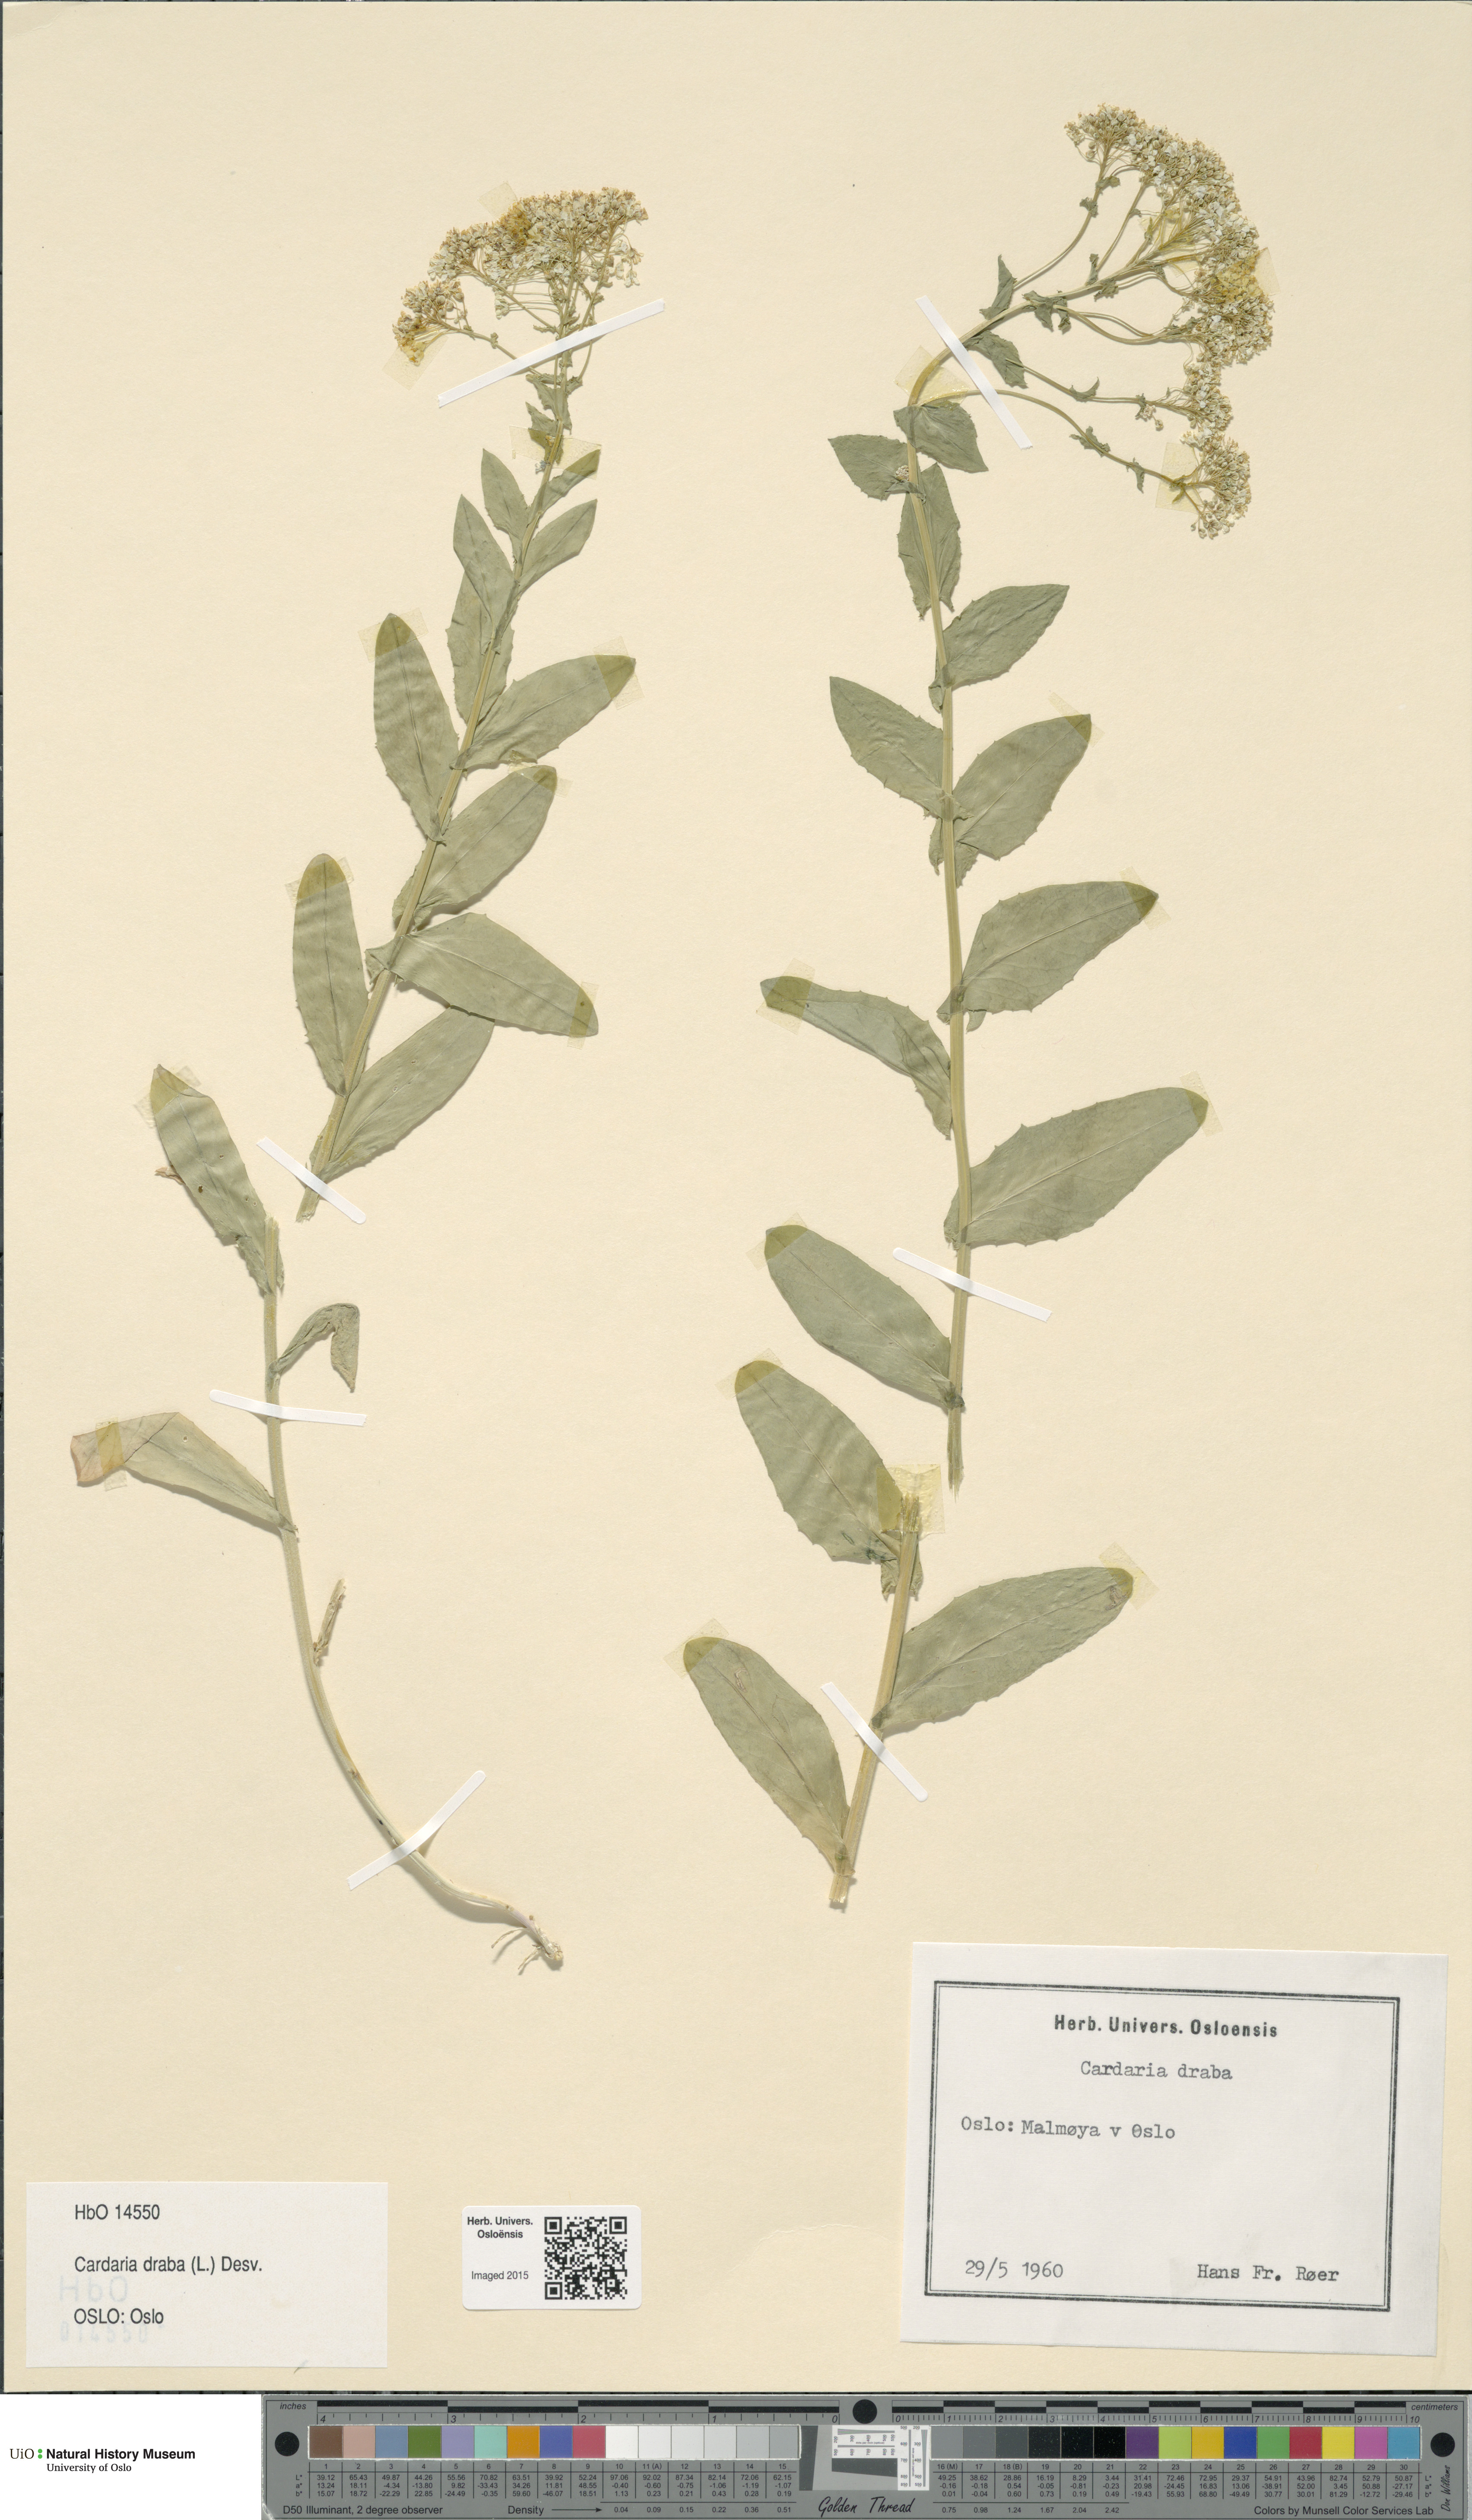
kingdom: Plantae
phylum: Tracheophyta
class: Magnoliopsida
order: Brassicales
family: Brassicaceae
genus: Lepidium
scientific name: Lepidium draba
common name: Hoary cress
